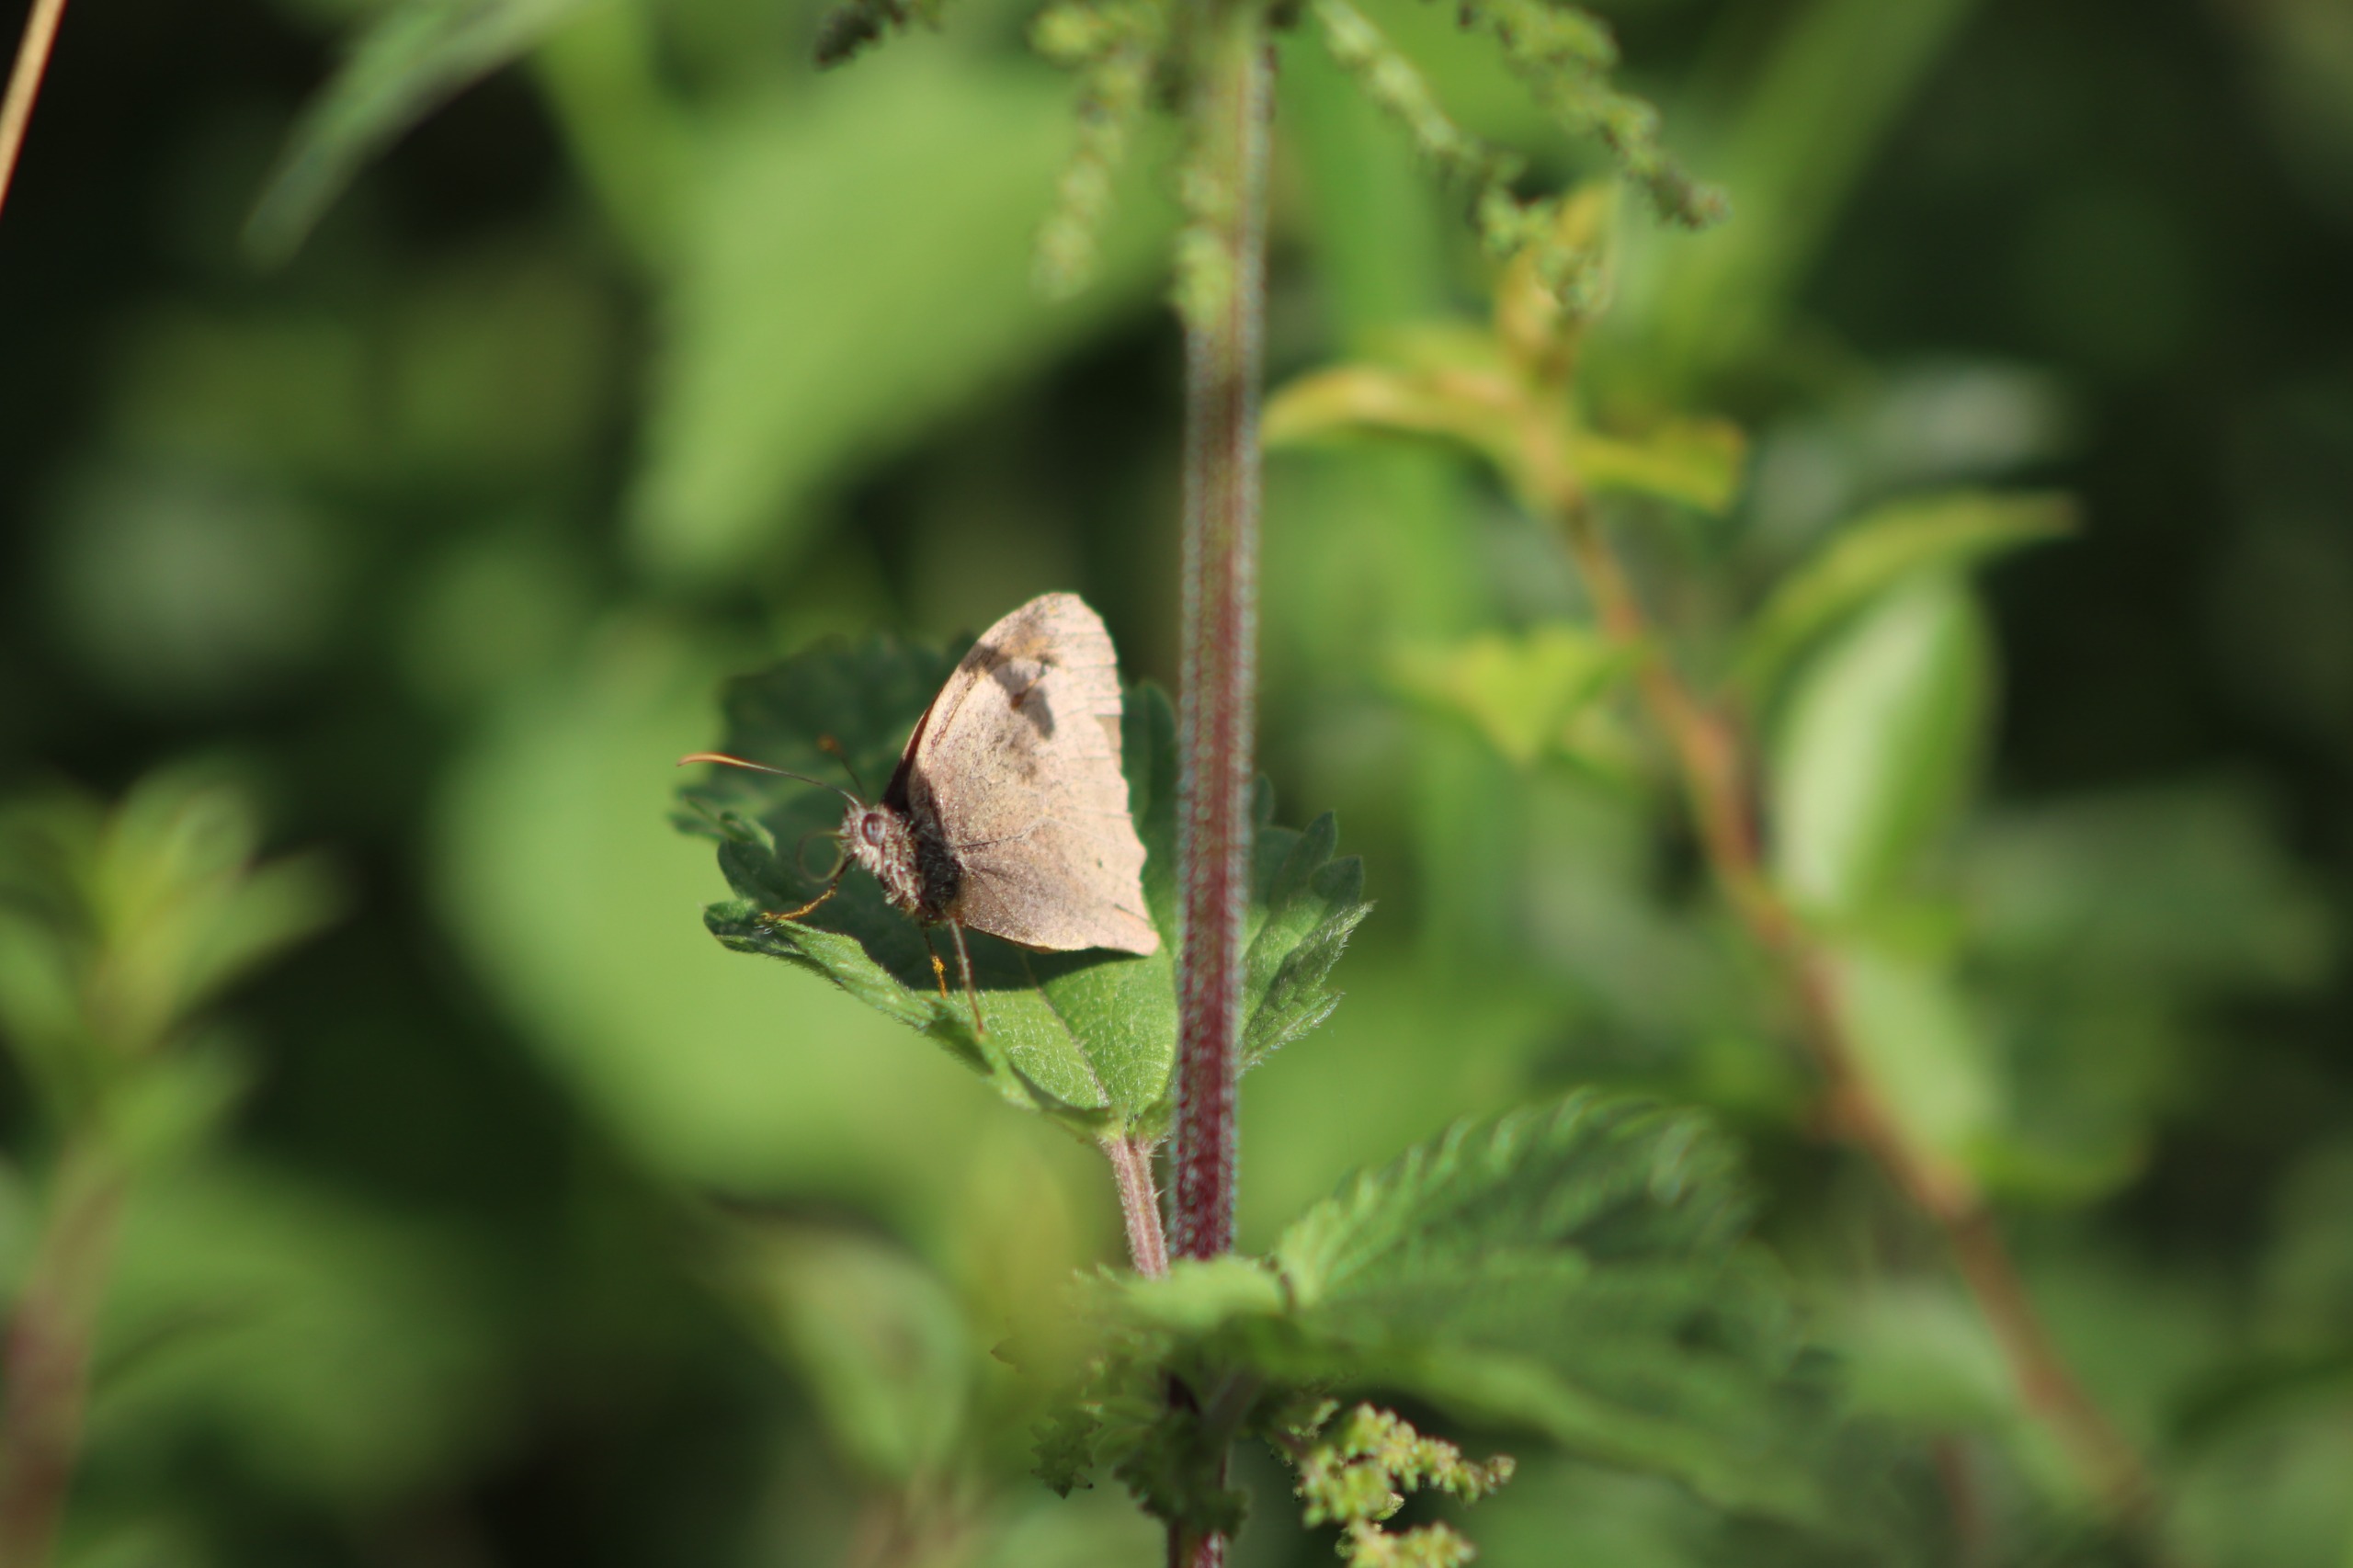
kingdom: Animalia
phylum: Arthropoda
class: Insecta
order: Lepidoptera
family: Nymphalidae
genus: Maniola
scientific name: Maniola jurtina
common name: Græsrandøje
